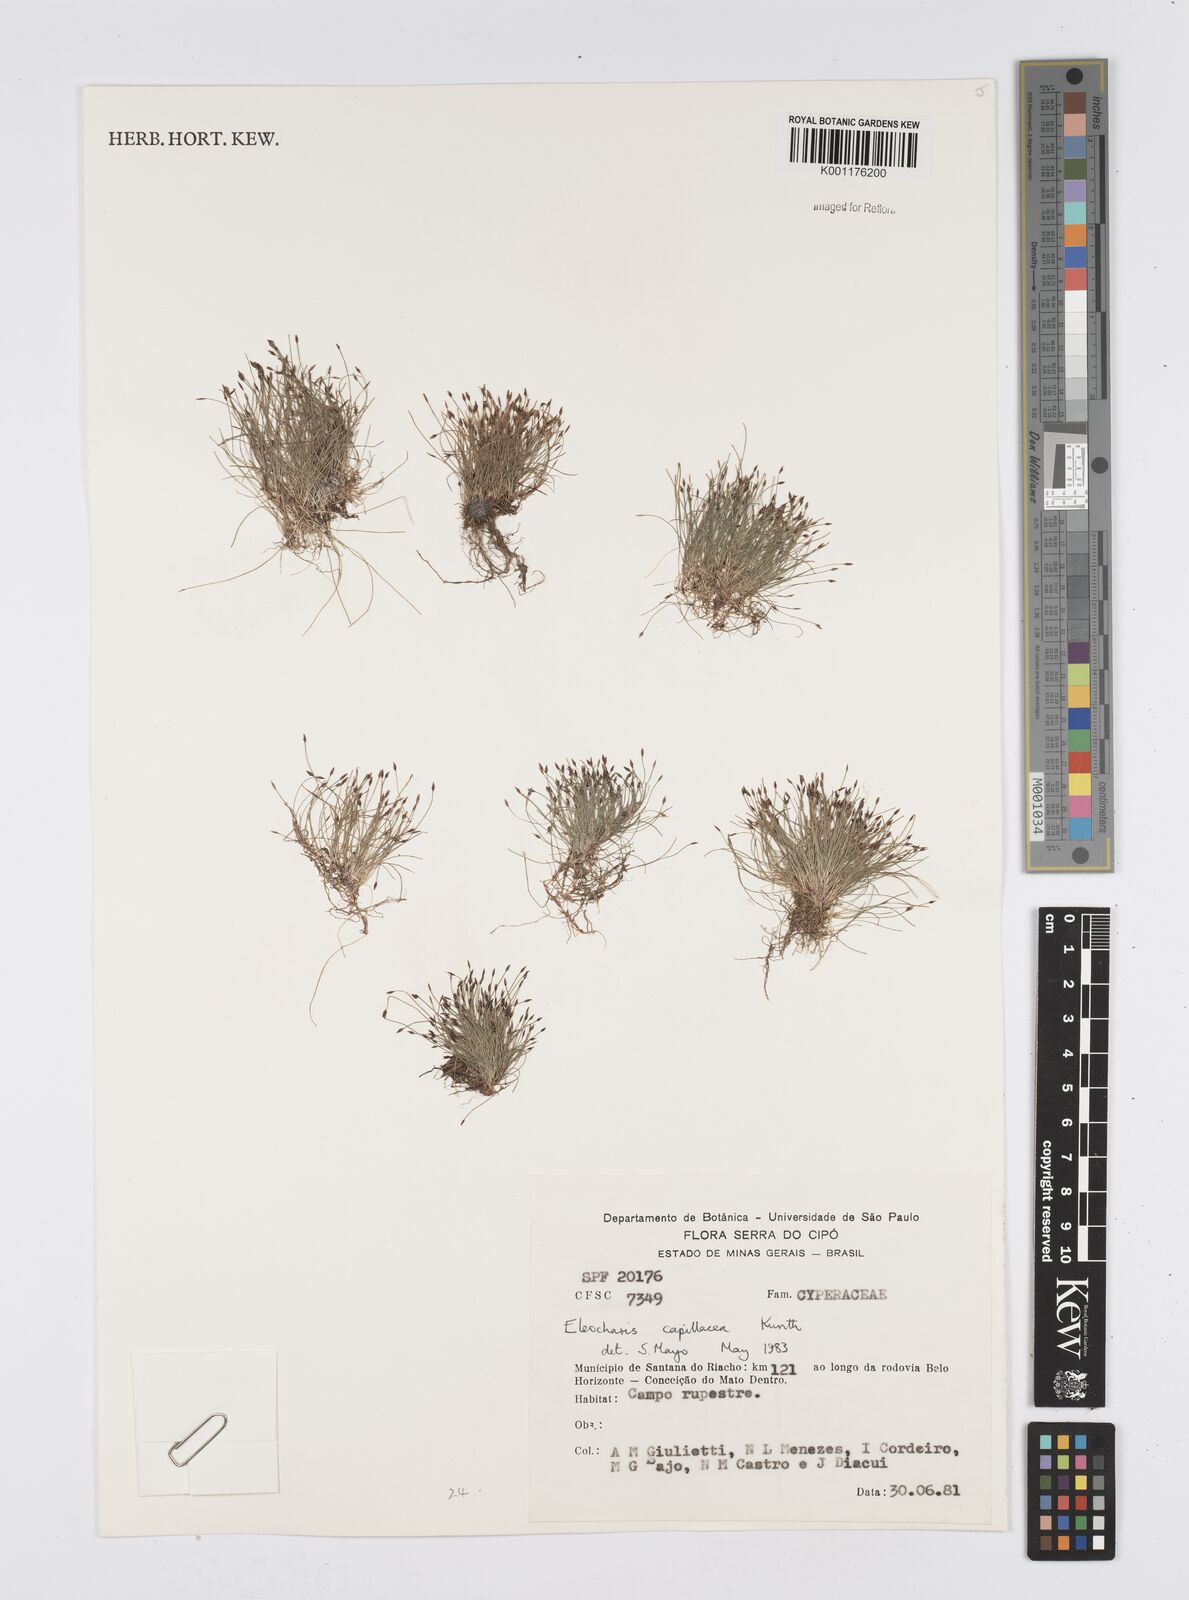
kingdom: Plantae
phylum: Tracheophyta
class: Liliopsida
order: Poales
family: Cyperaceae
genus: Eleocharis
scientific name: Eleocharis capillacea
